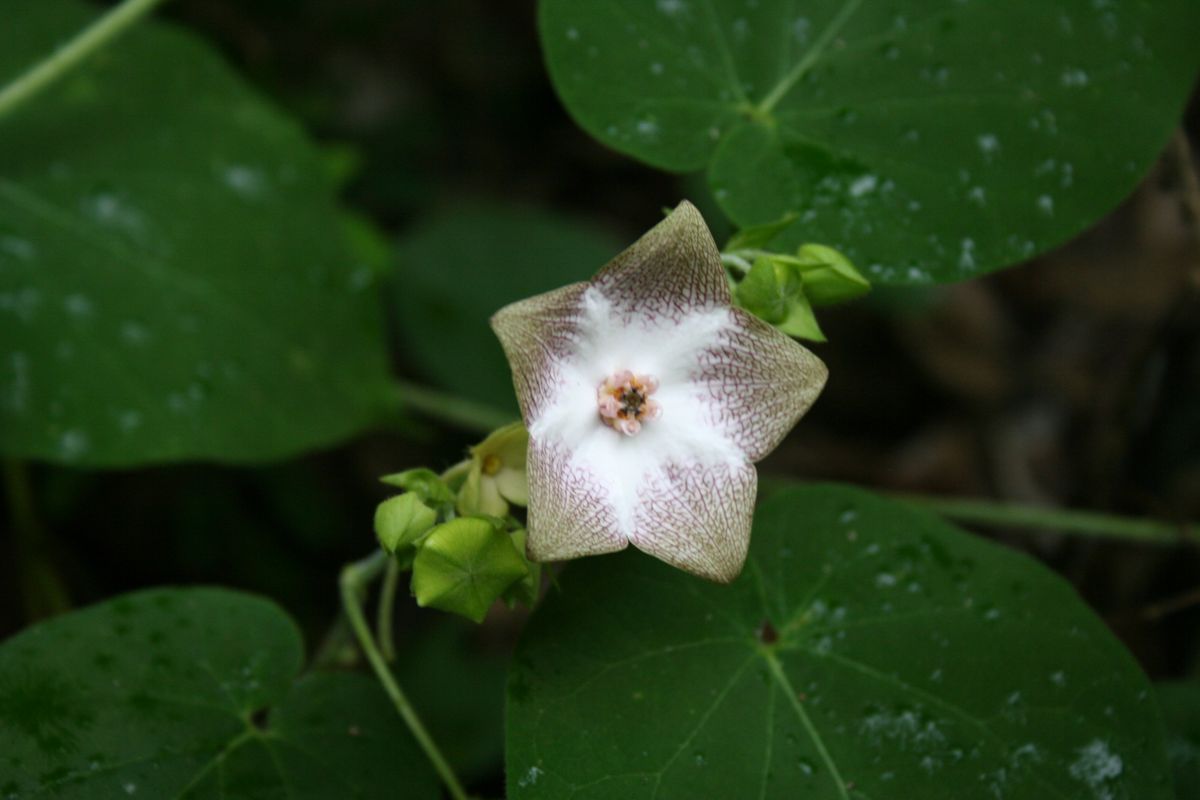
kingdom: Plantae
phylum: Tracheophyta
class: Magnoliopsida
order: Gentianales
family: Apocynaceae
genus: Polystemma
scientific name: Polystemma guatemalense
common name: Arborescente rattan
